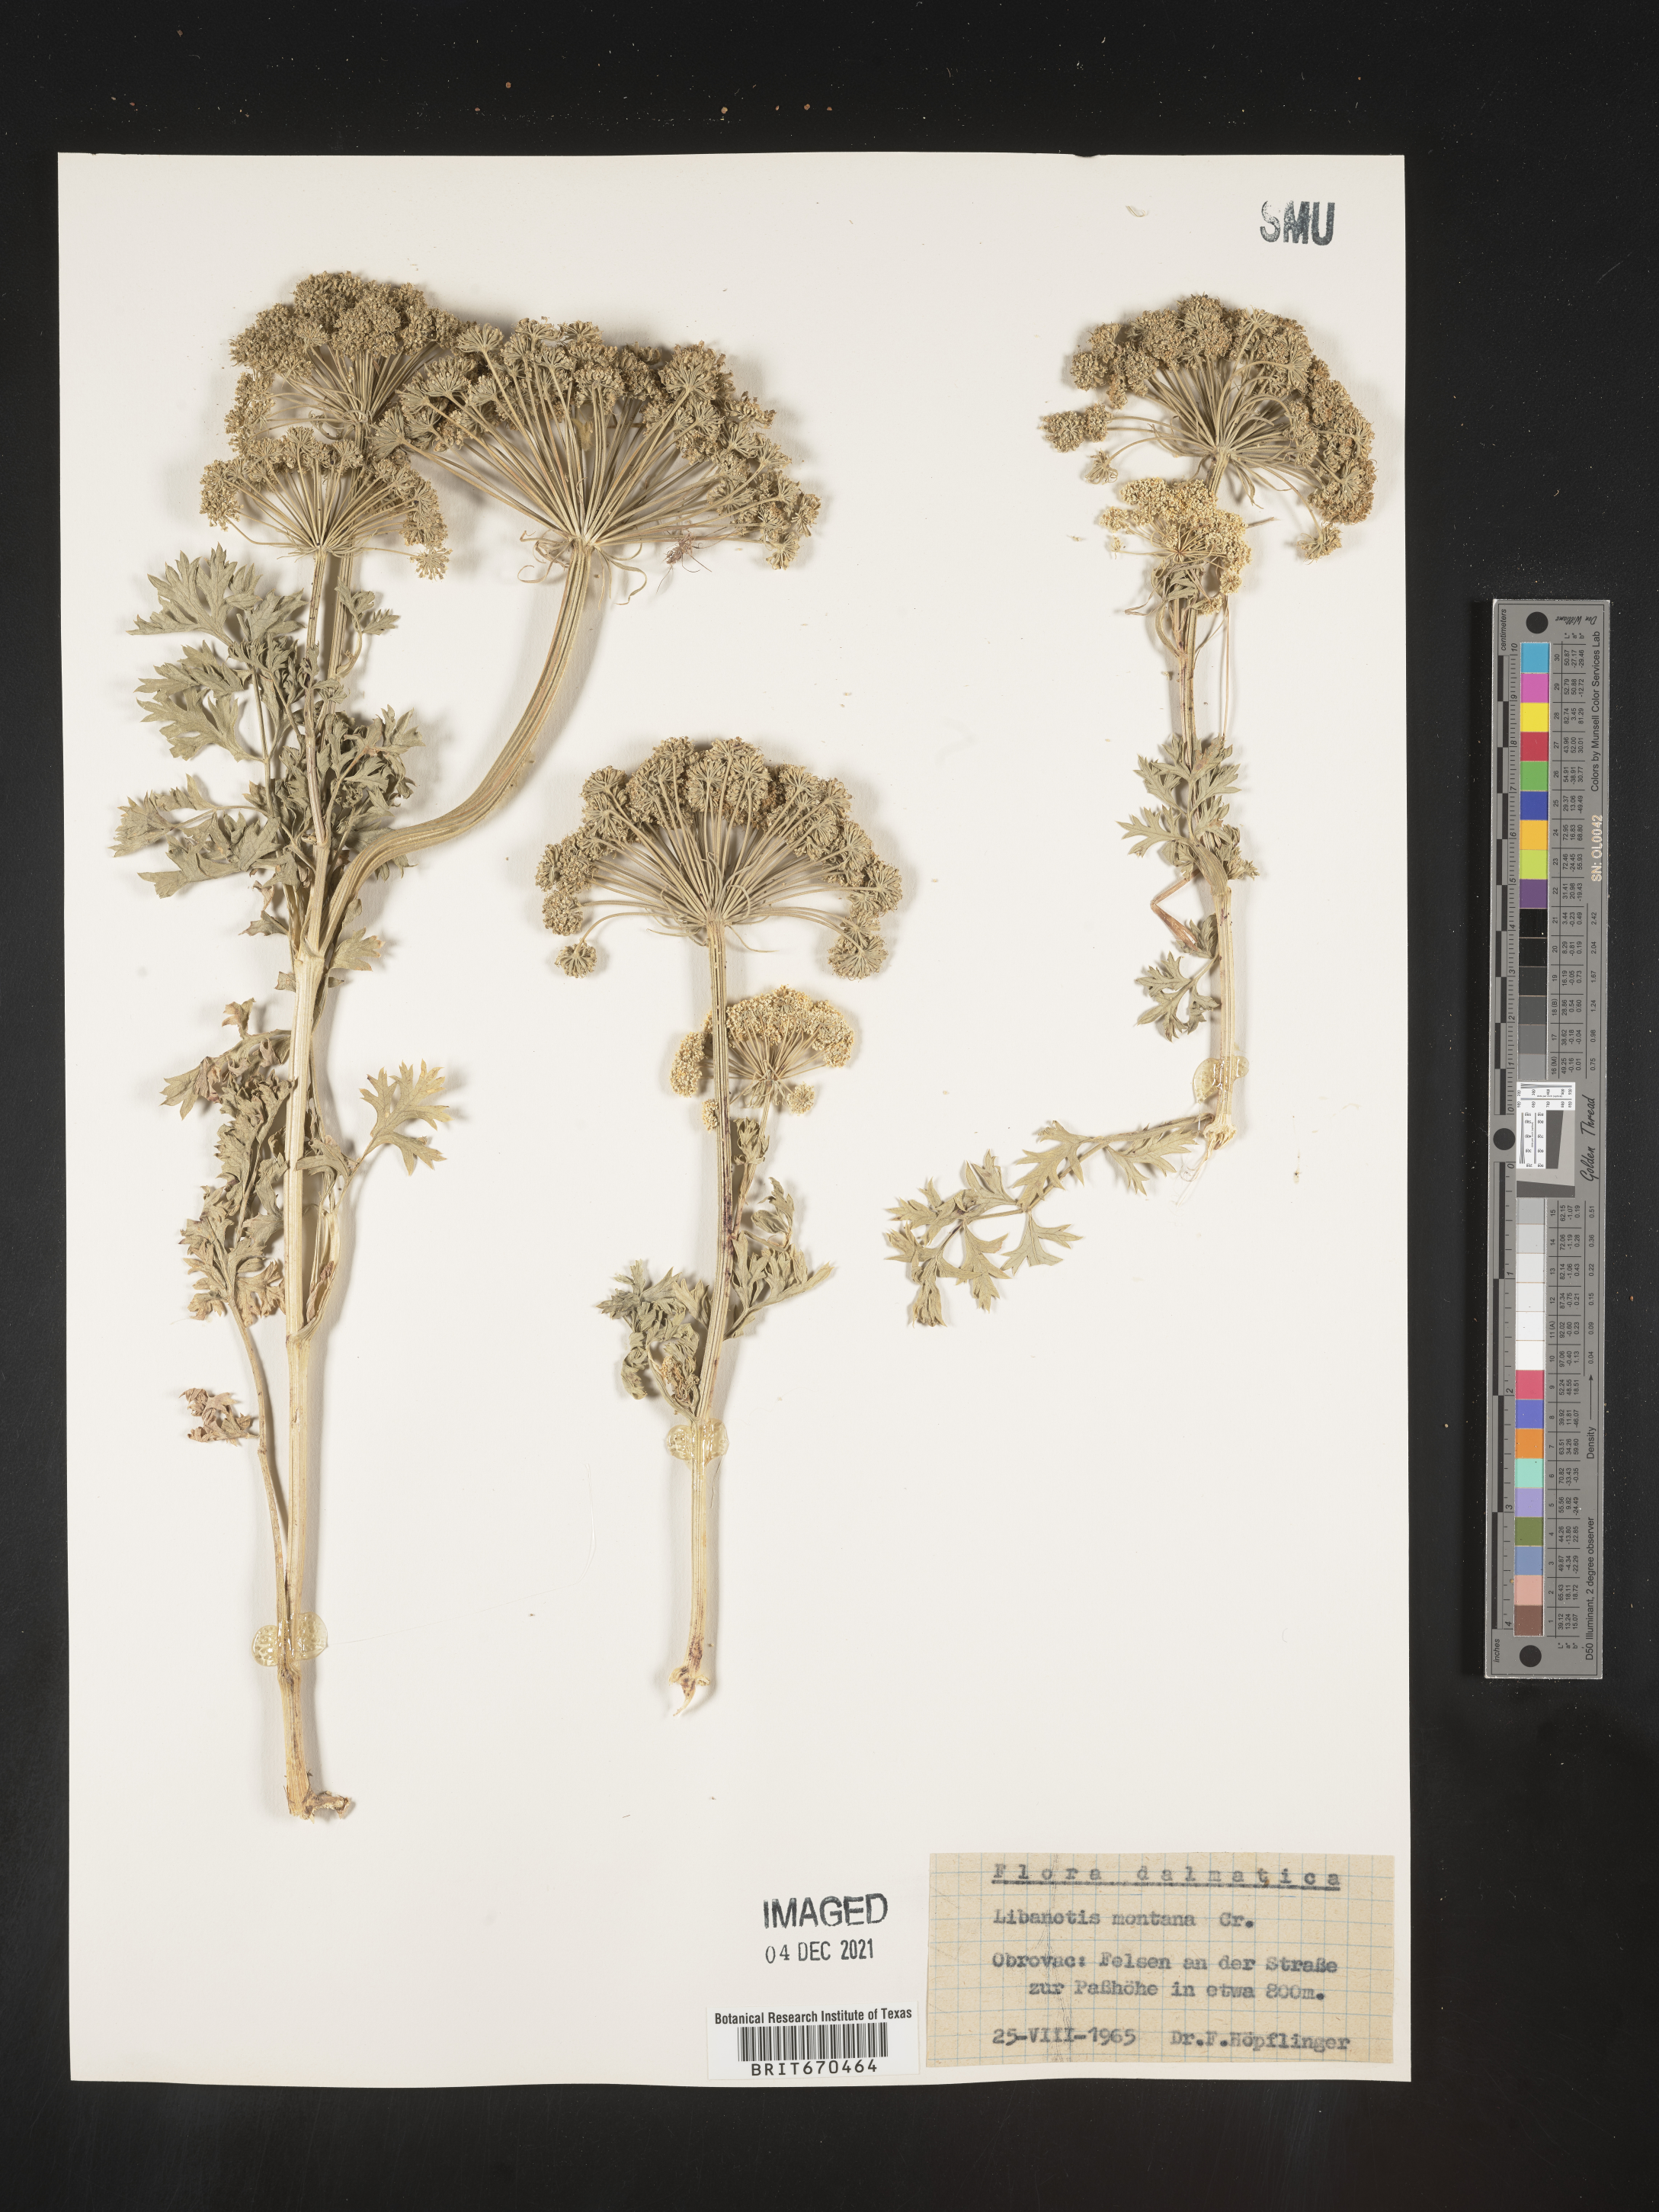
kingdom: Plantae
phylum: Tracheophyta
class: Magnoliopsida
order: Apiales
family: Apiaceae
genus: Libanotis
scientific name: Libanotis
